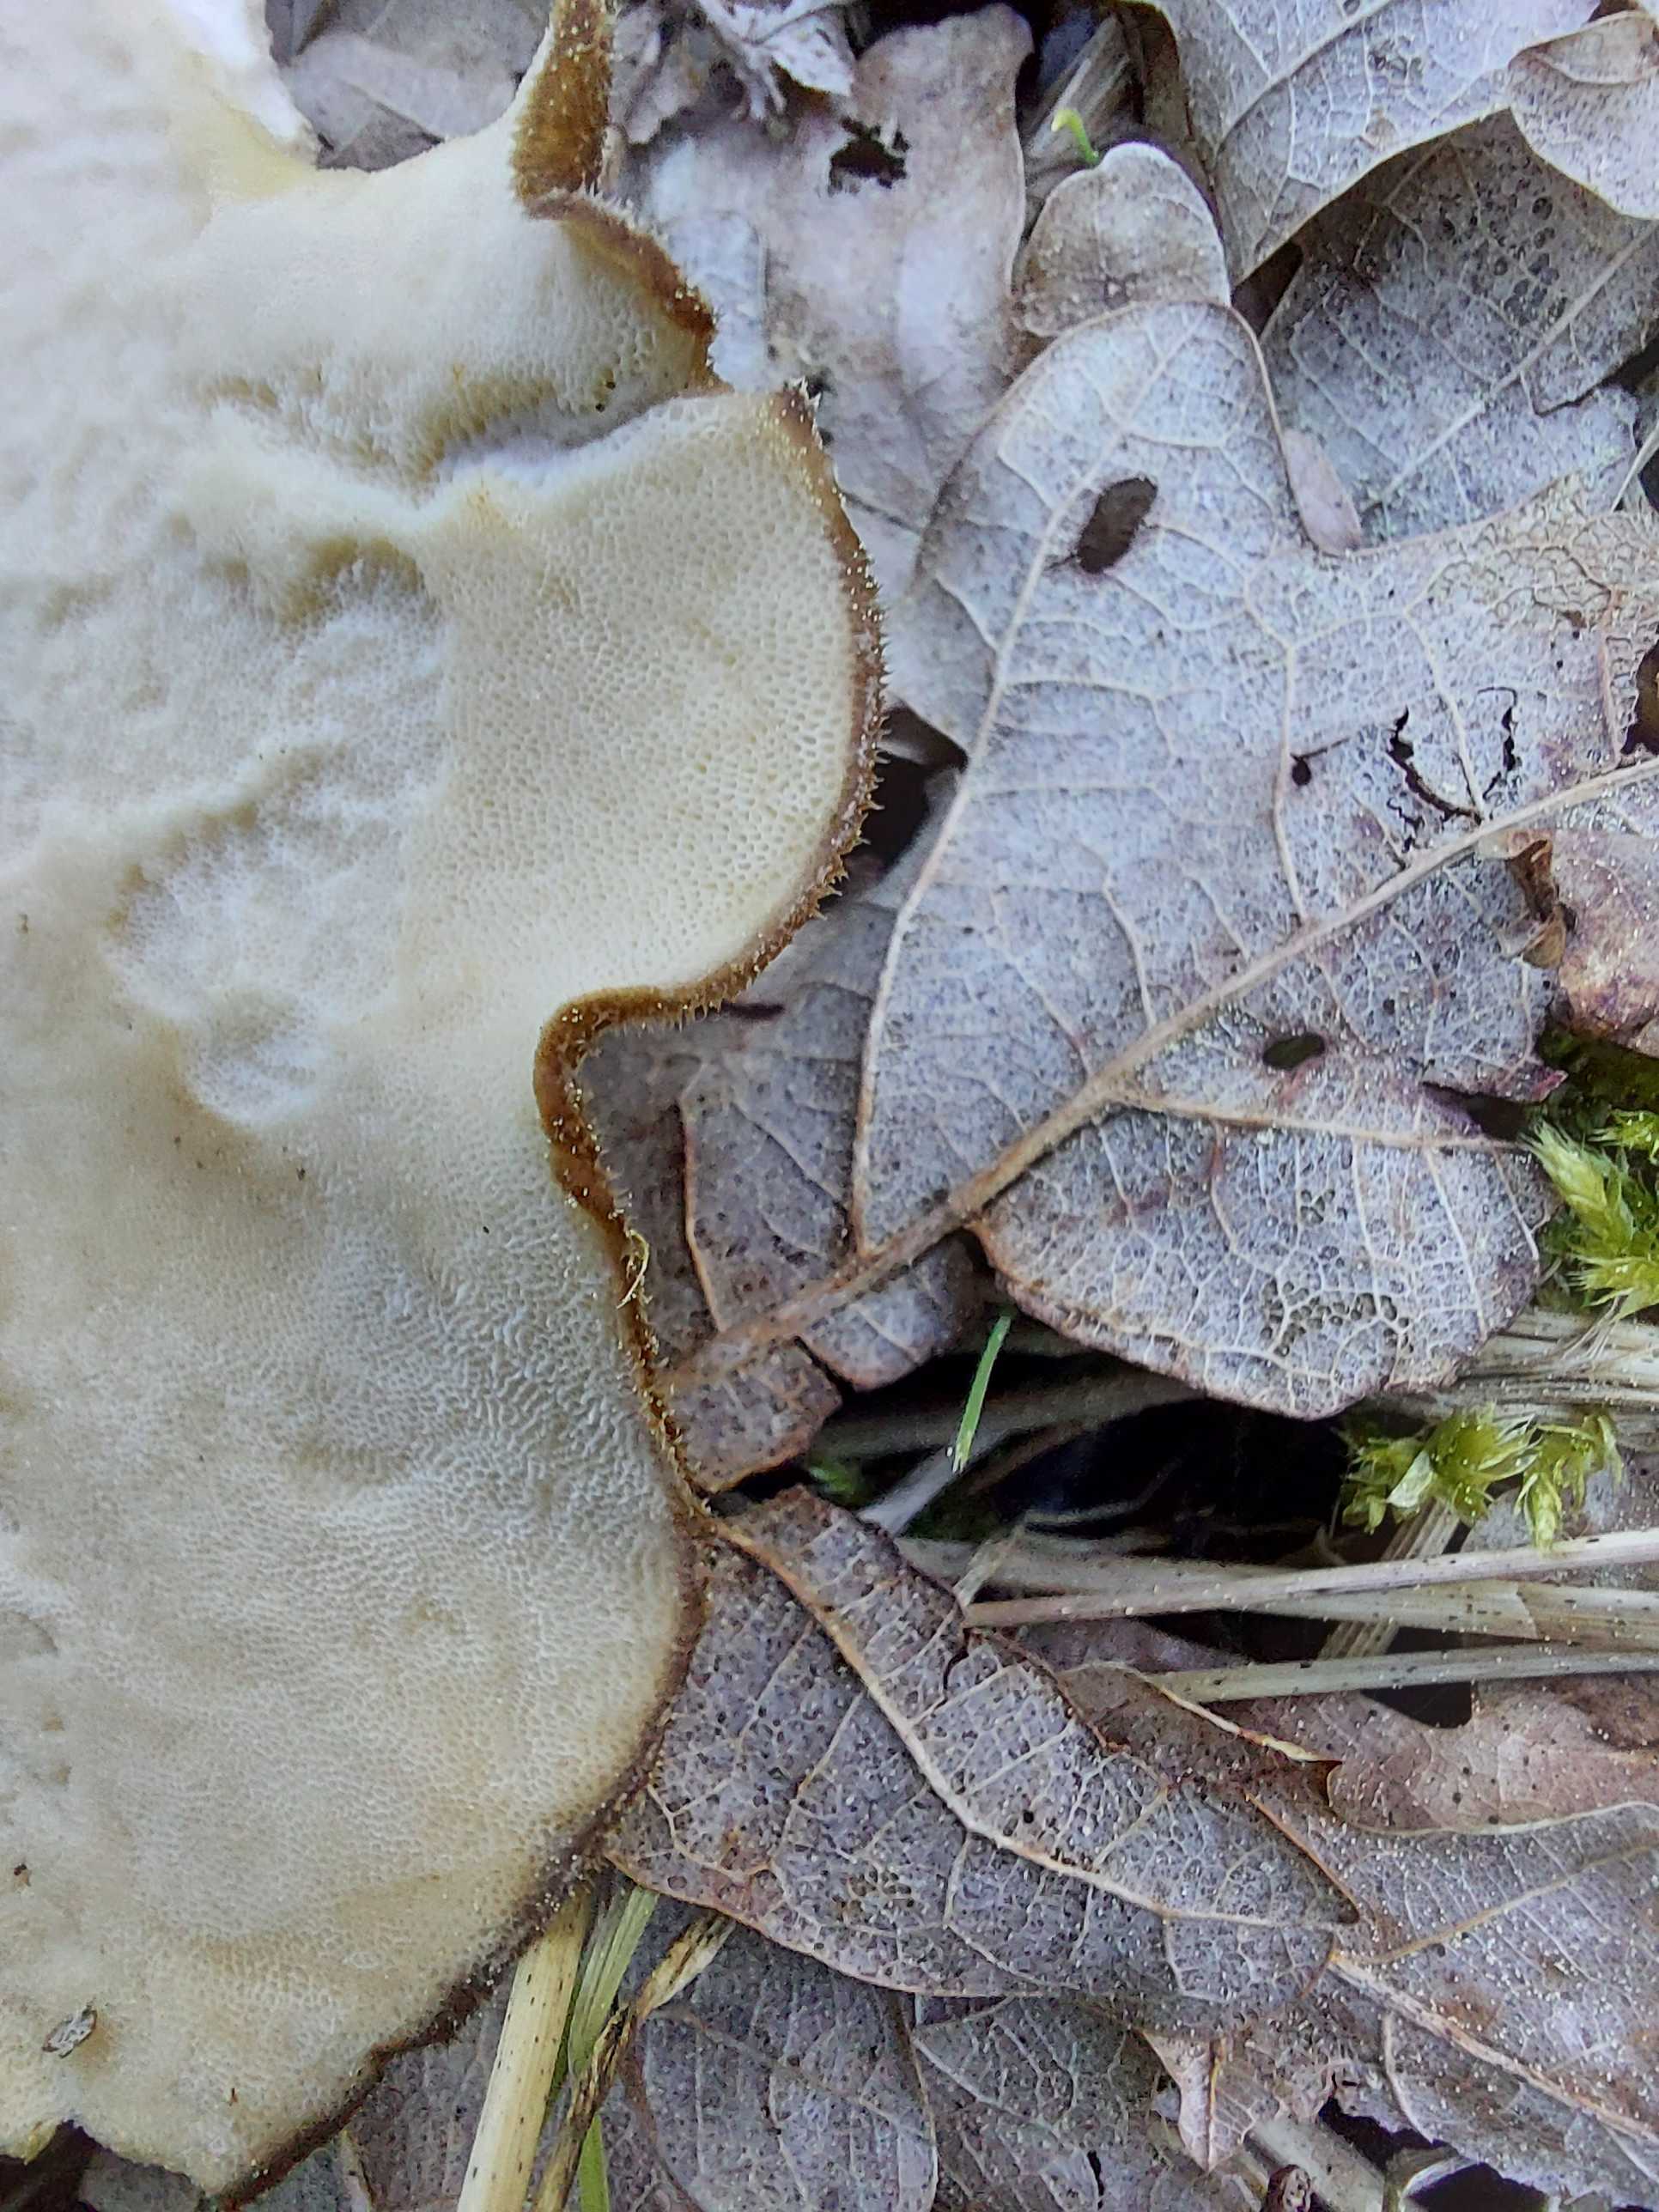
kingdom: Fungi
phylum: Basidiomycota
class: Agaricomycetes
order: Polyporales
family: Polyporaceae
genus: Lentinus
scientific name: Lentinus substrictus
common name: forårs-stilkporesvamp
